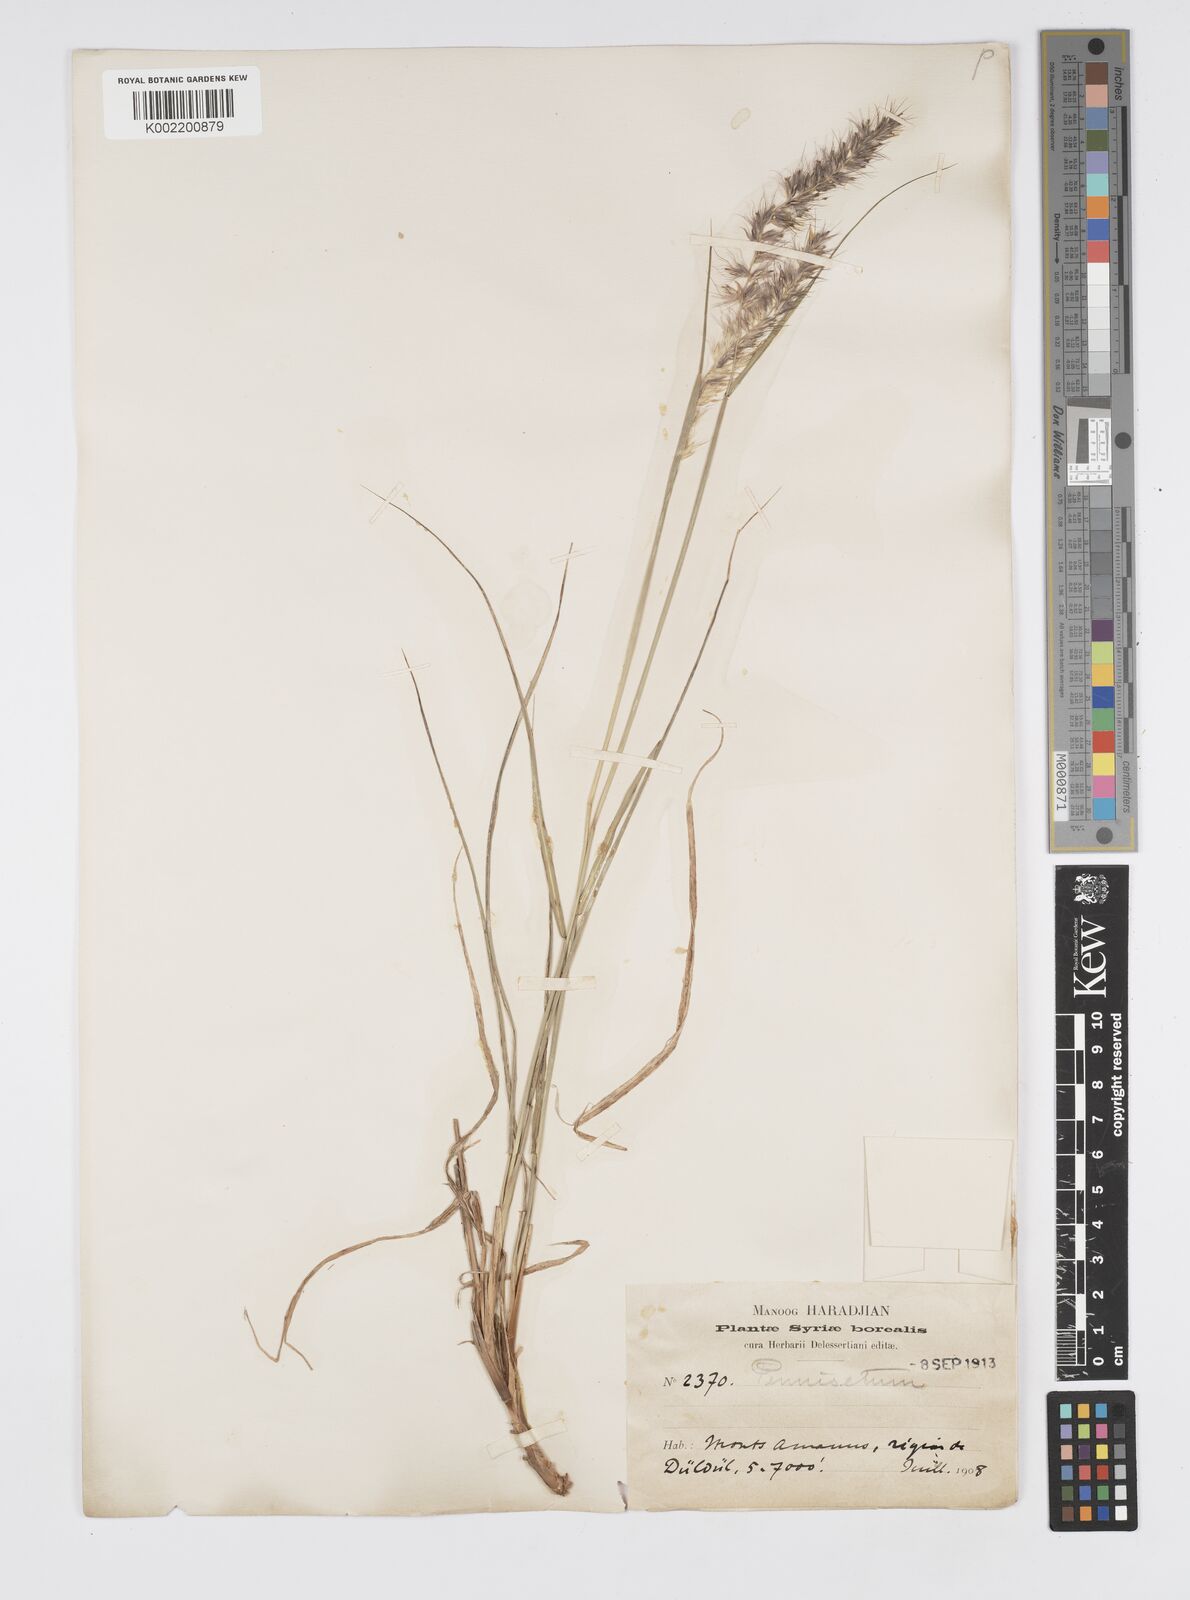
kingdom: Plantae
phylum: Tracheophyta
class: Liliopsida
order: Poales
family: Poaceae
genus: Cenchrus
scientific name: Cenchrus orientalis
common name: Oriental fountain grass
